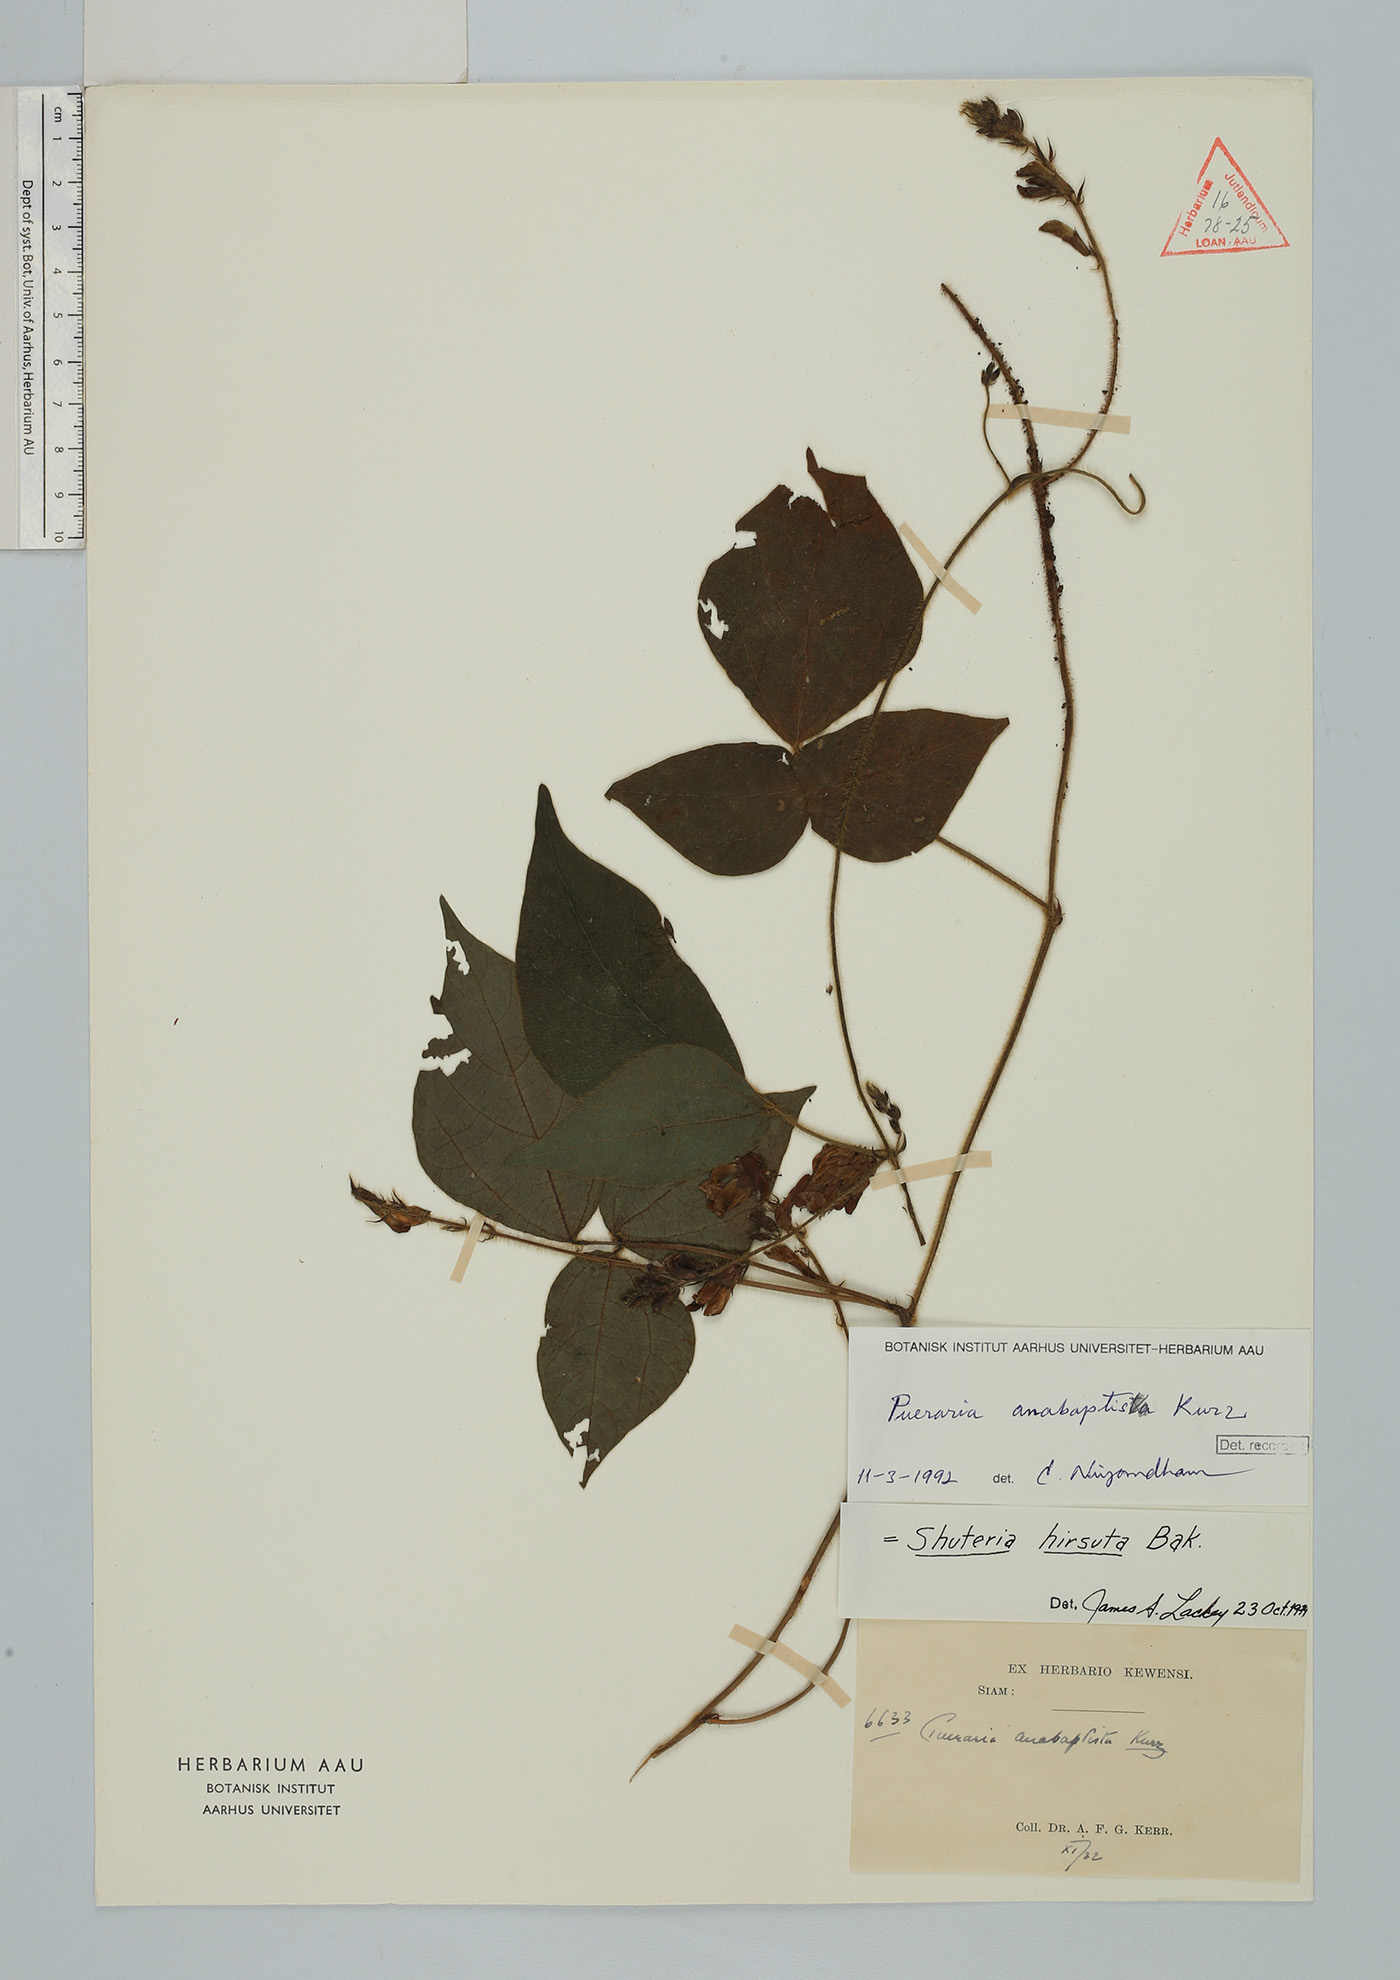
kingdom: Plantae
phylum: Tracheophyta
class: Magnoliopsida
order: Fabales
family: Fabaceae
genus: Harashuteria
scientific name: Harashuteria hirsuta
